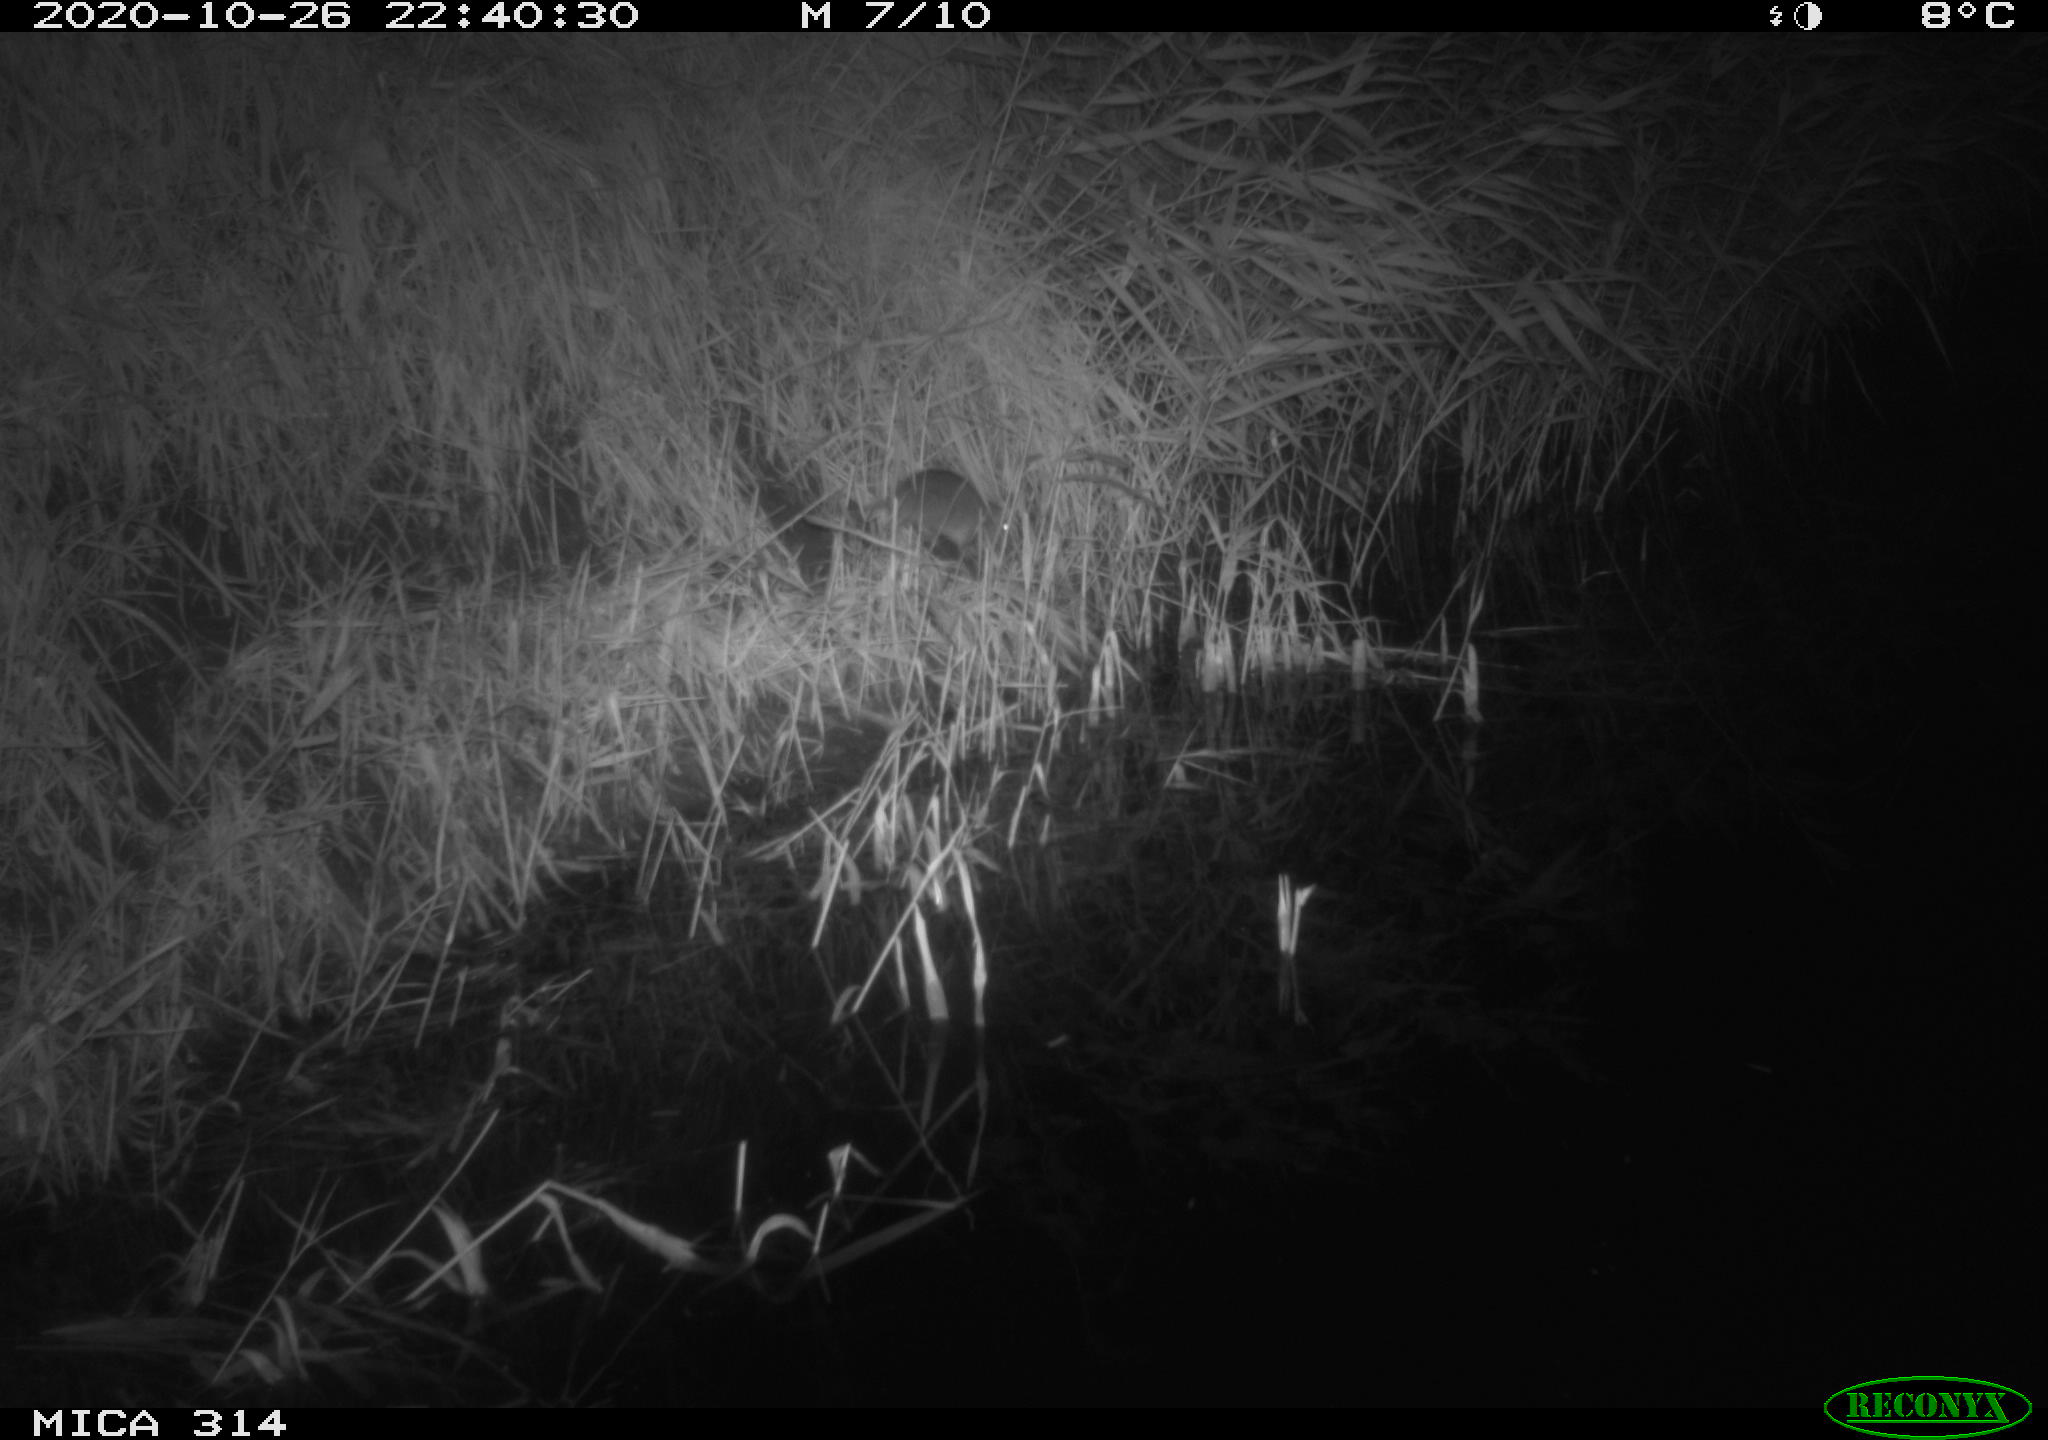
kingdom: Animalia
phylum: Chordata
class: Mammalia
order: Rodentia
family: Muridae
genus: Rattus
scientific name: Rattus norvegicus
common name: Brown rat
